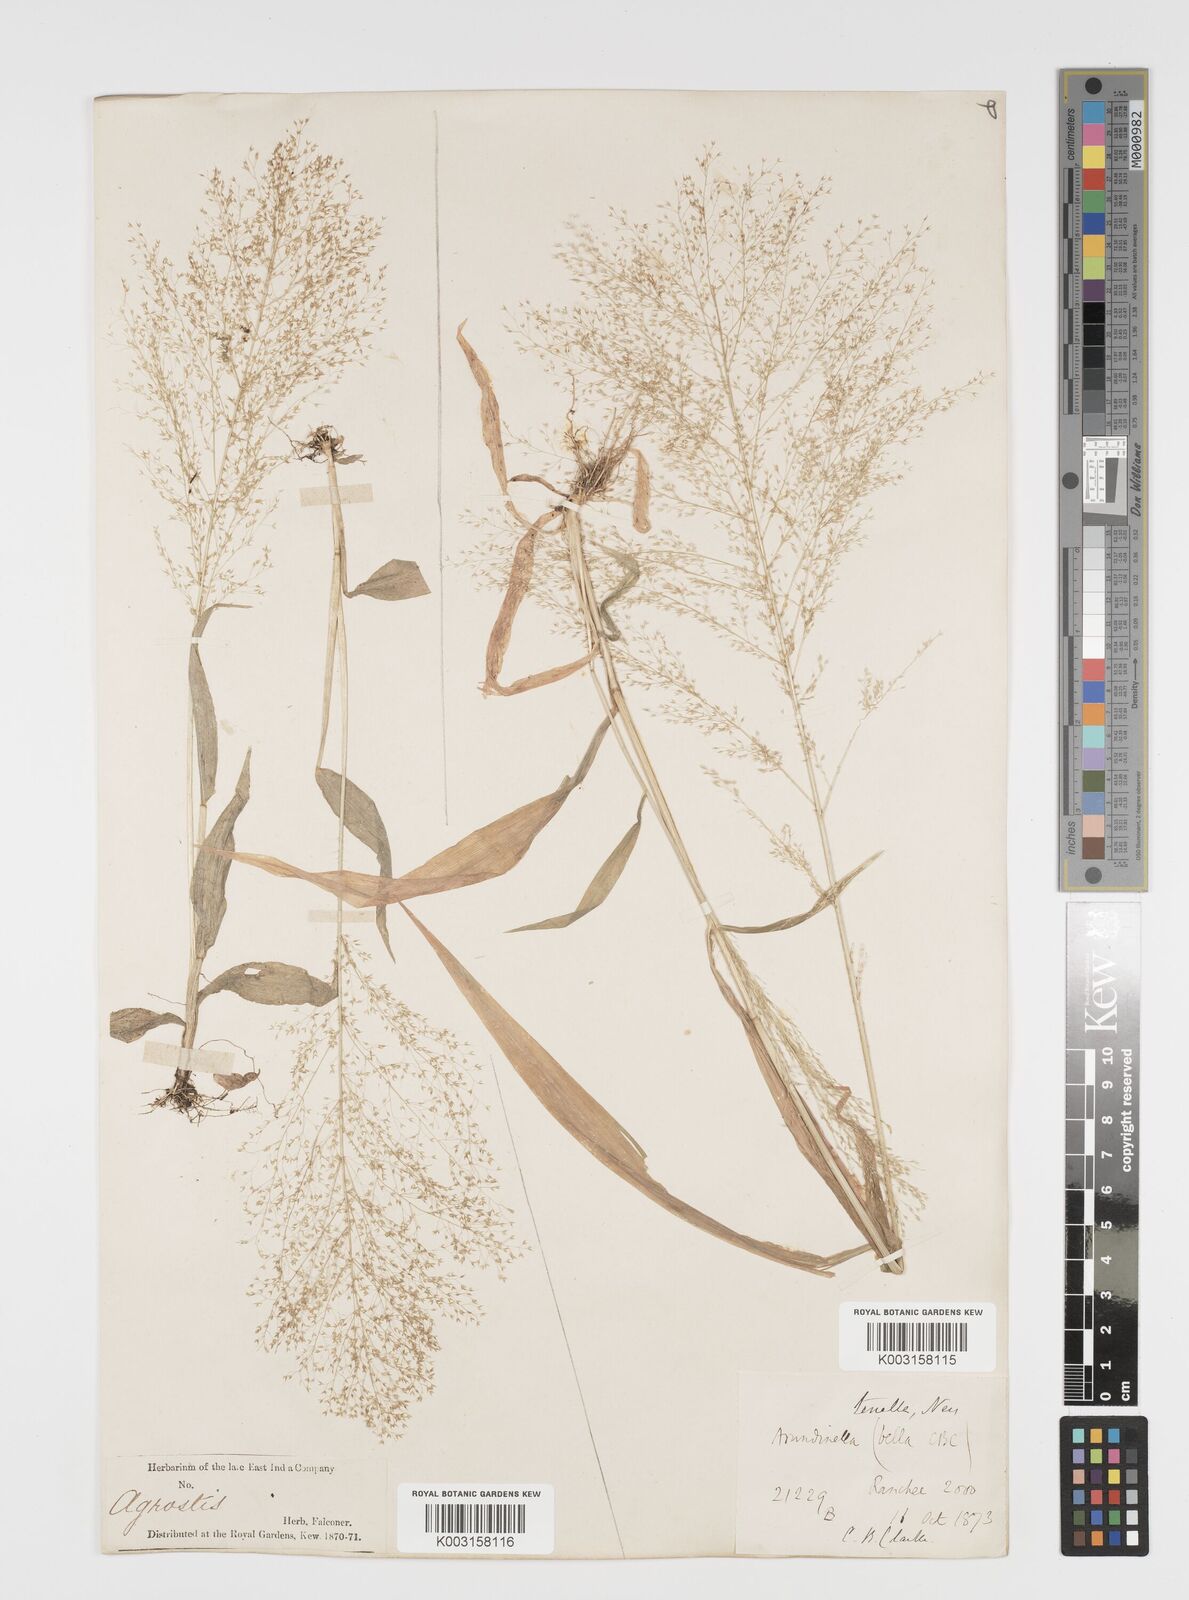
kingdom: Plantae
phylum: Tracheophyta
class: Liliopsida
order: Poales
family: Poaceae
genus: Arundinella
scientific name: Arundinella pumila
